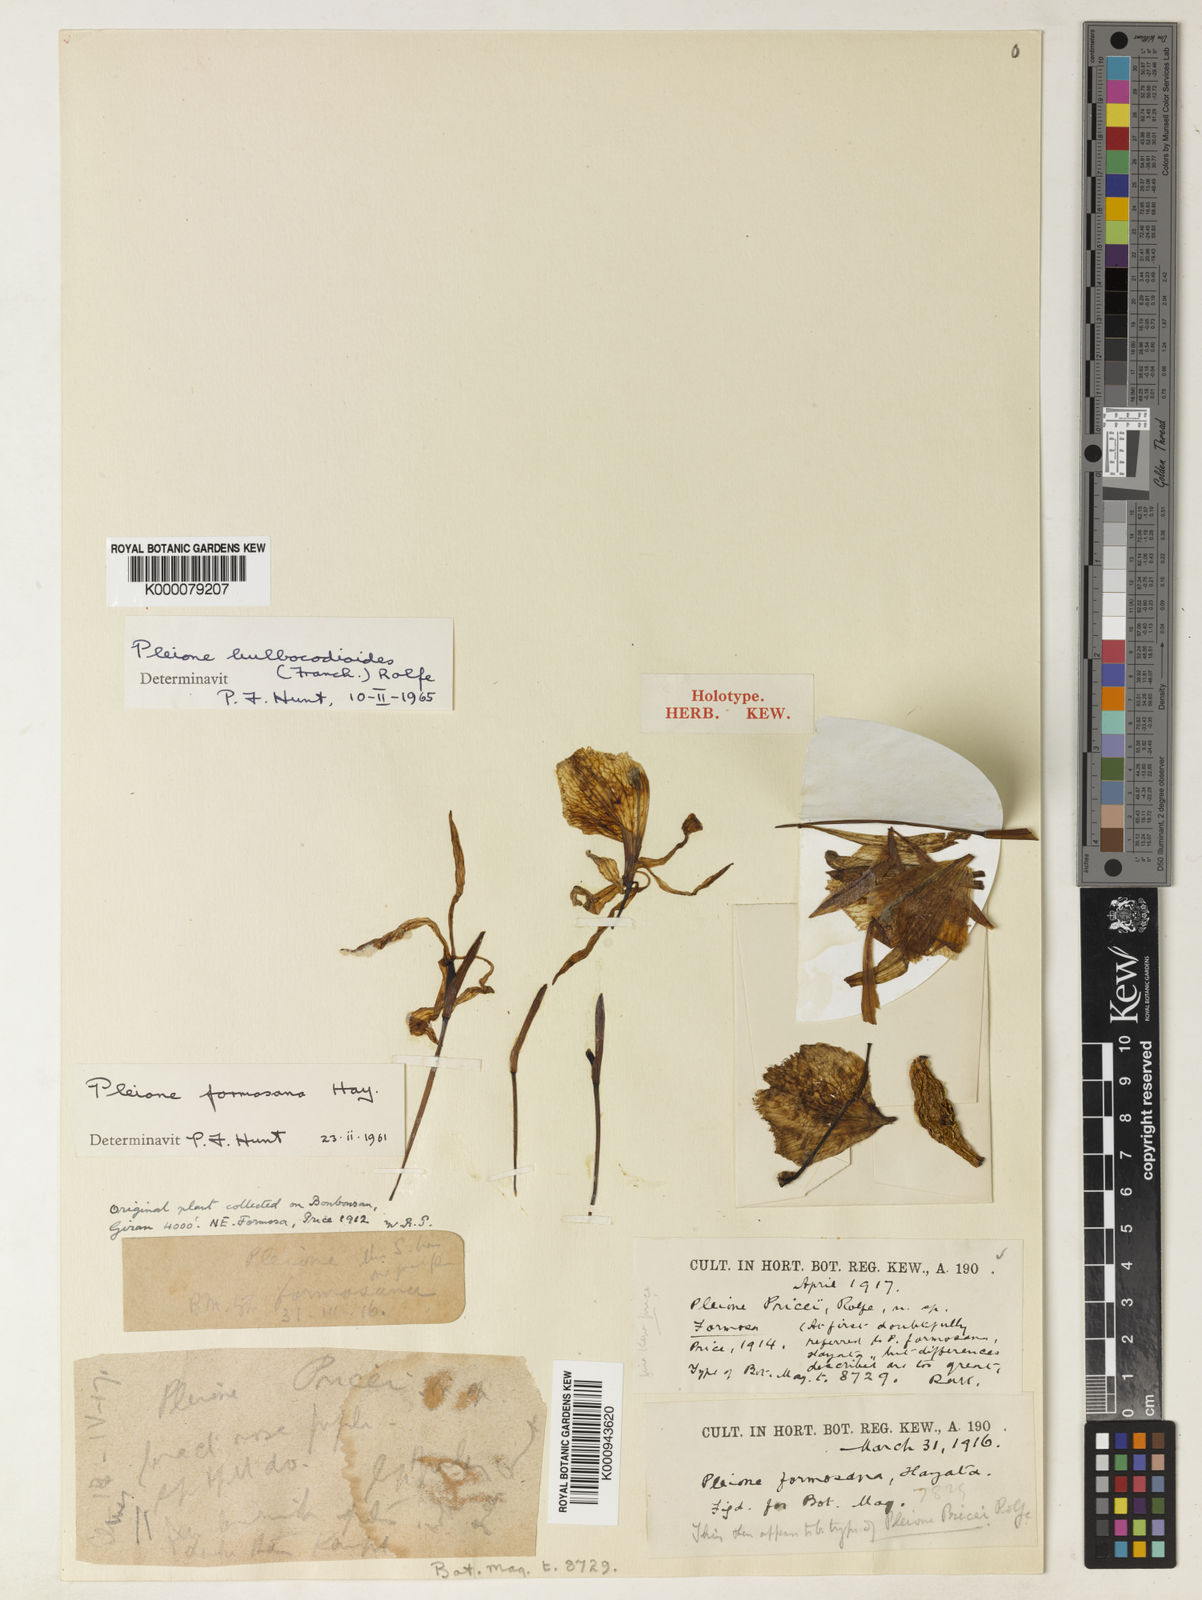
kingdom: Plantae
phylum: Tracheophyta
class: Liliopsida
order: Asparagales
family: Orchidaceae
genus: Pleione
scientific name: Pleione bulbocodioides
